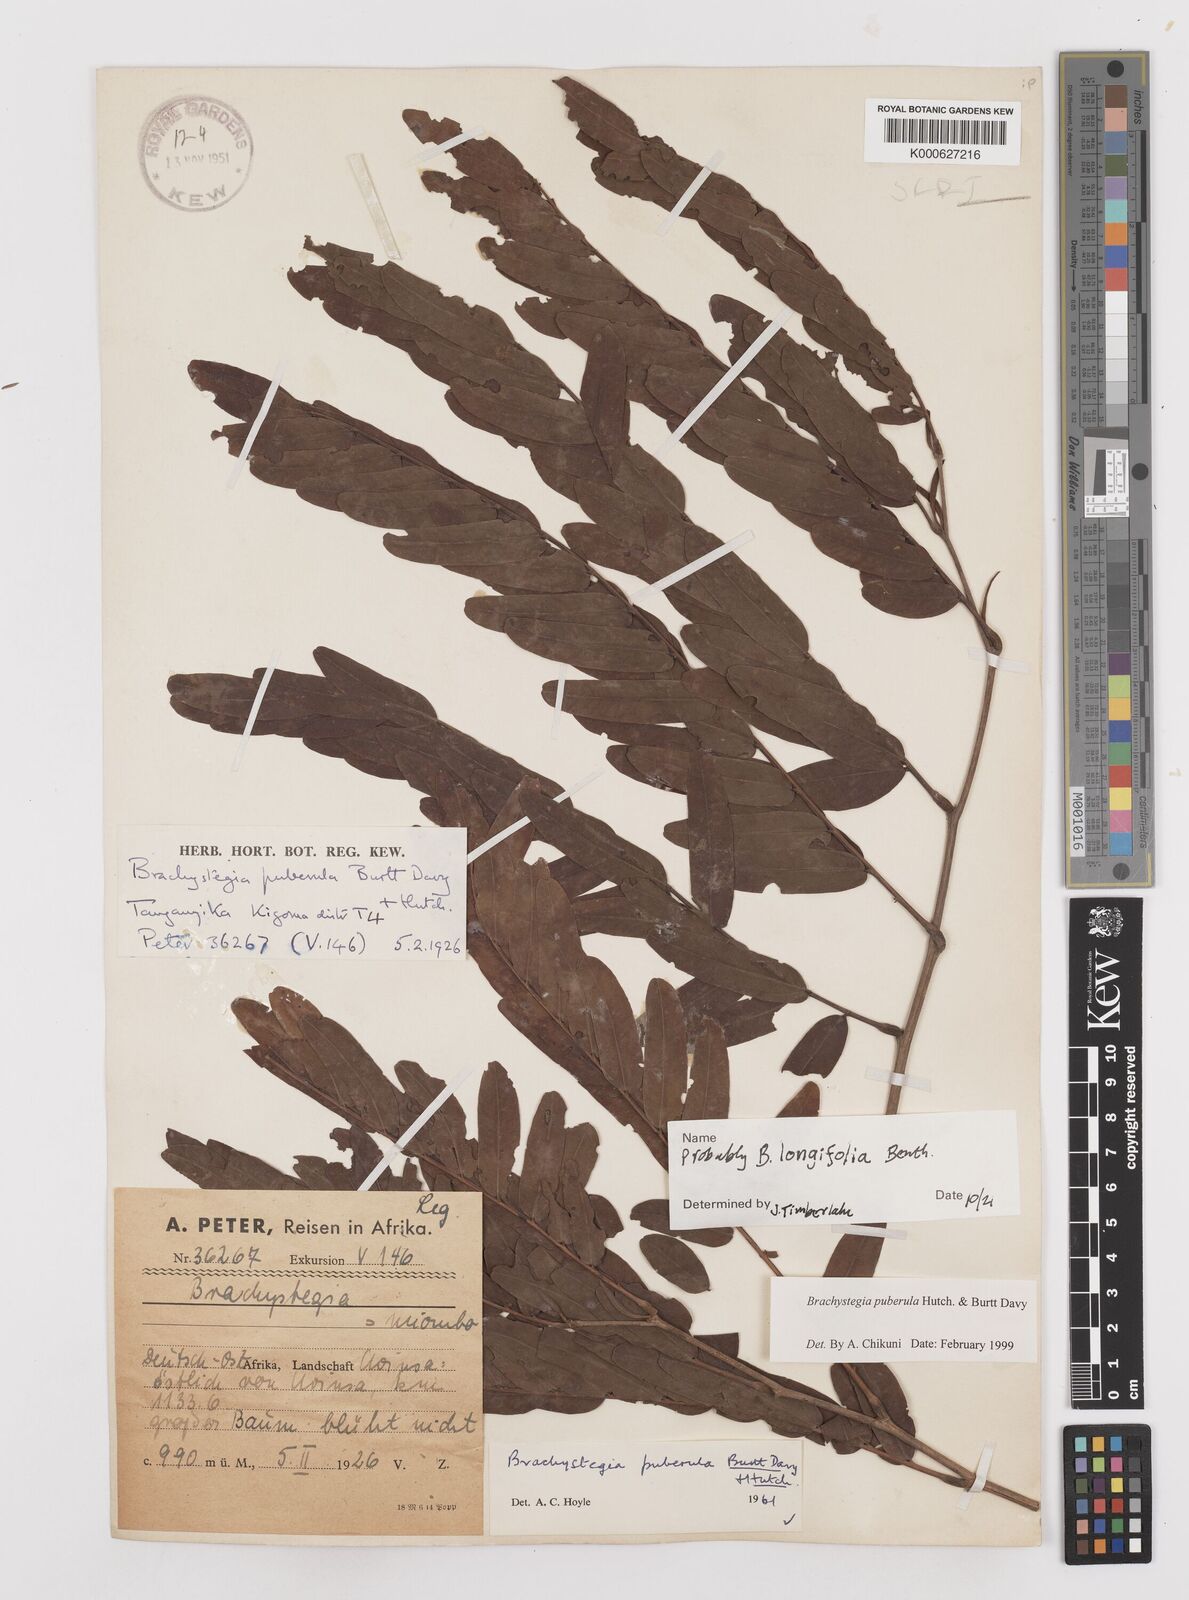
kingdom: Plantae
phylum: Tracheophyta
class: Magnoliopsida
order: Fabales
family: Fabaceae
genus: Brachystegia
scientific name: Brachystegia puberula
